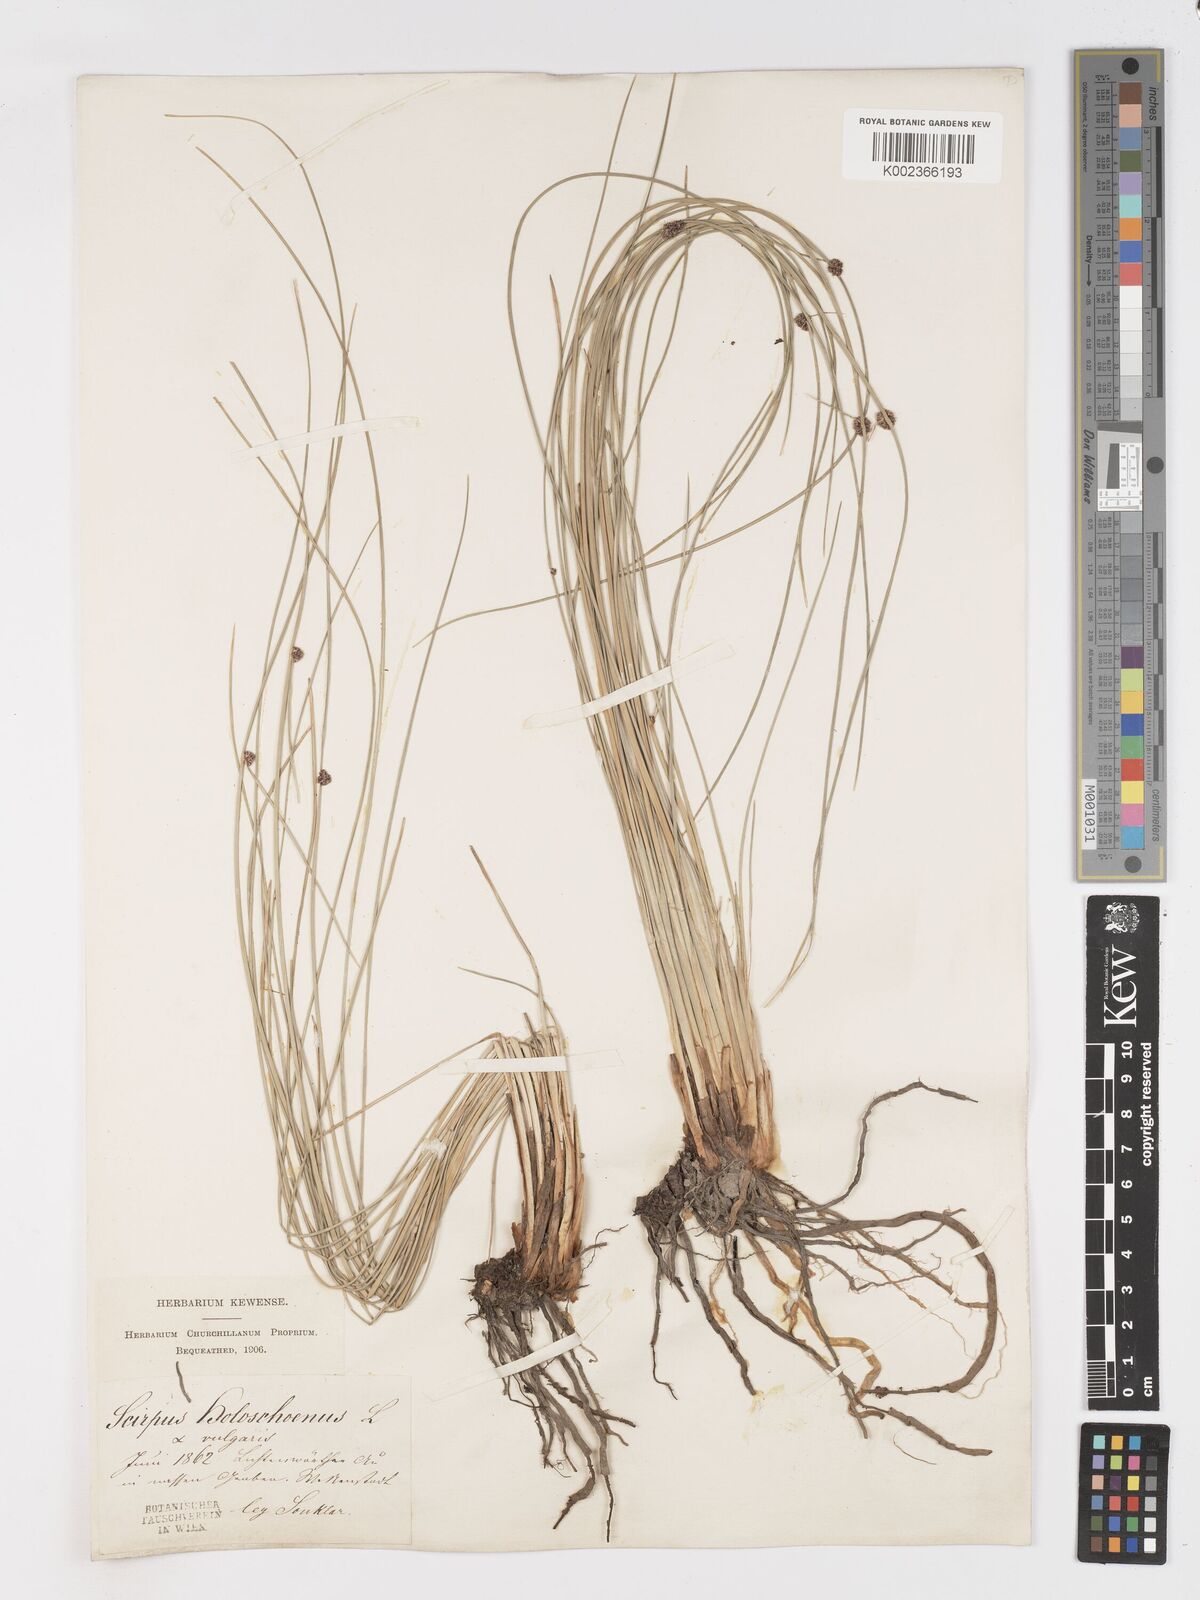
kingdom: Plantae
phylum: Tracheophyta
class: Liliopsida
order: Poales
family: Cyperaceae
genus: Scirpoides
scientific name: Scirpoides holoschoenus
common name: Round-headed club-rush
